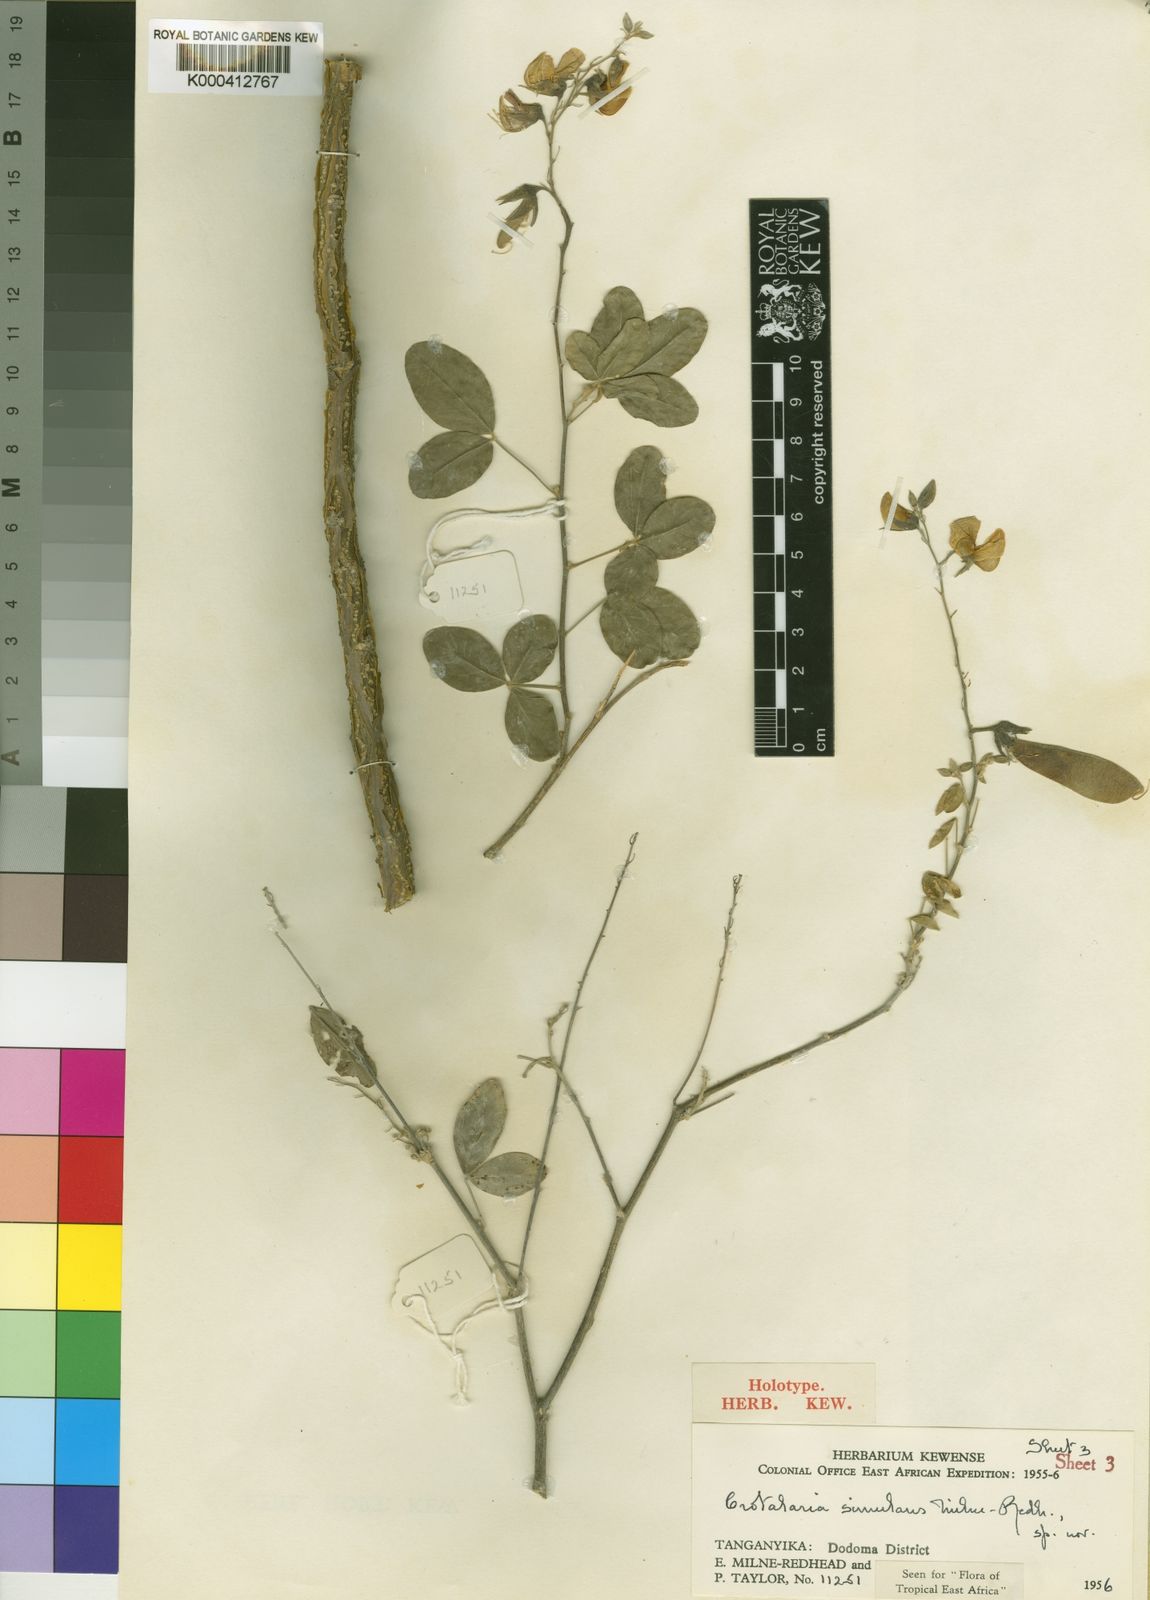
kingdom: Plantae
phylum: Tracheophyta
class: Magnoliopsida
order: Fabales
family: Fabaceae
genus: Crotalaria
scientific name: Crotalaria simulans
